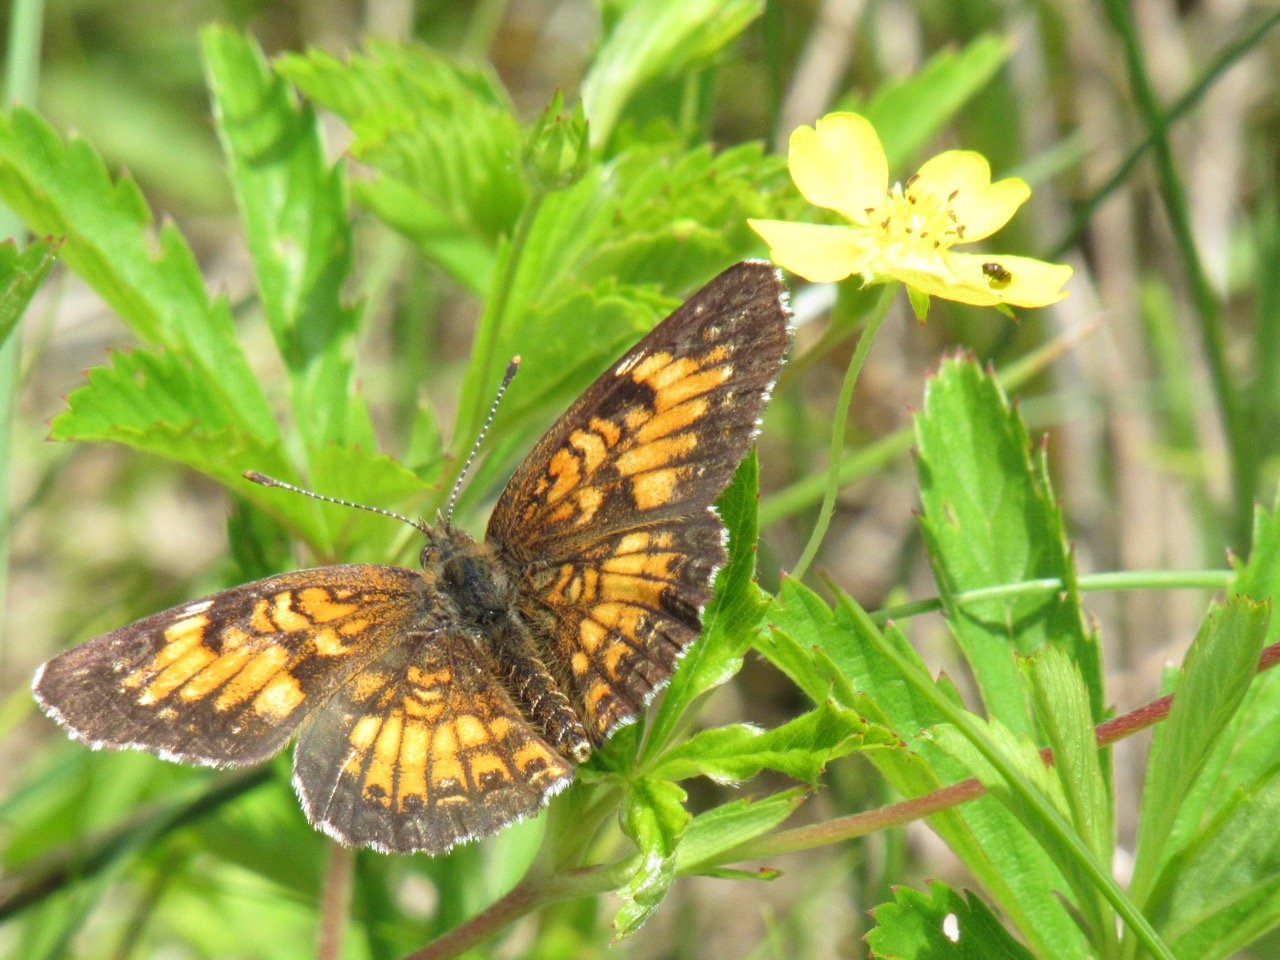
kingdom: Animalia
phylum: Arthropoda
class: Insecta
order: Lepidoptera
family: Nymphalidae
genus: Chlosyne
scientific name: Chlosyne harrisii
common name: Harris's Checkerspot
